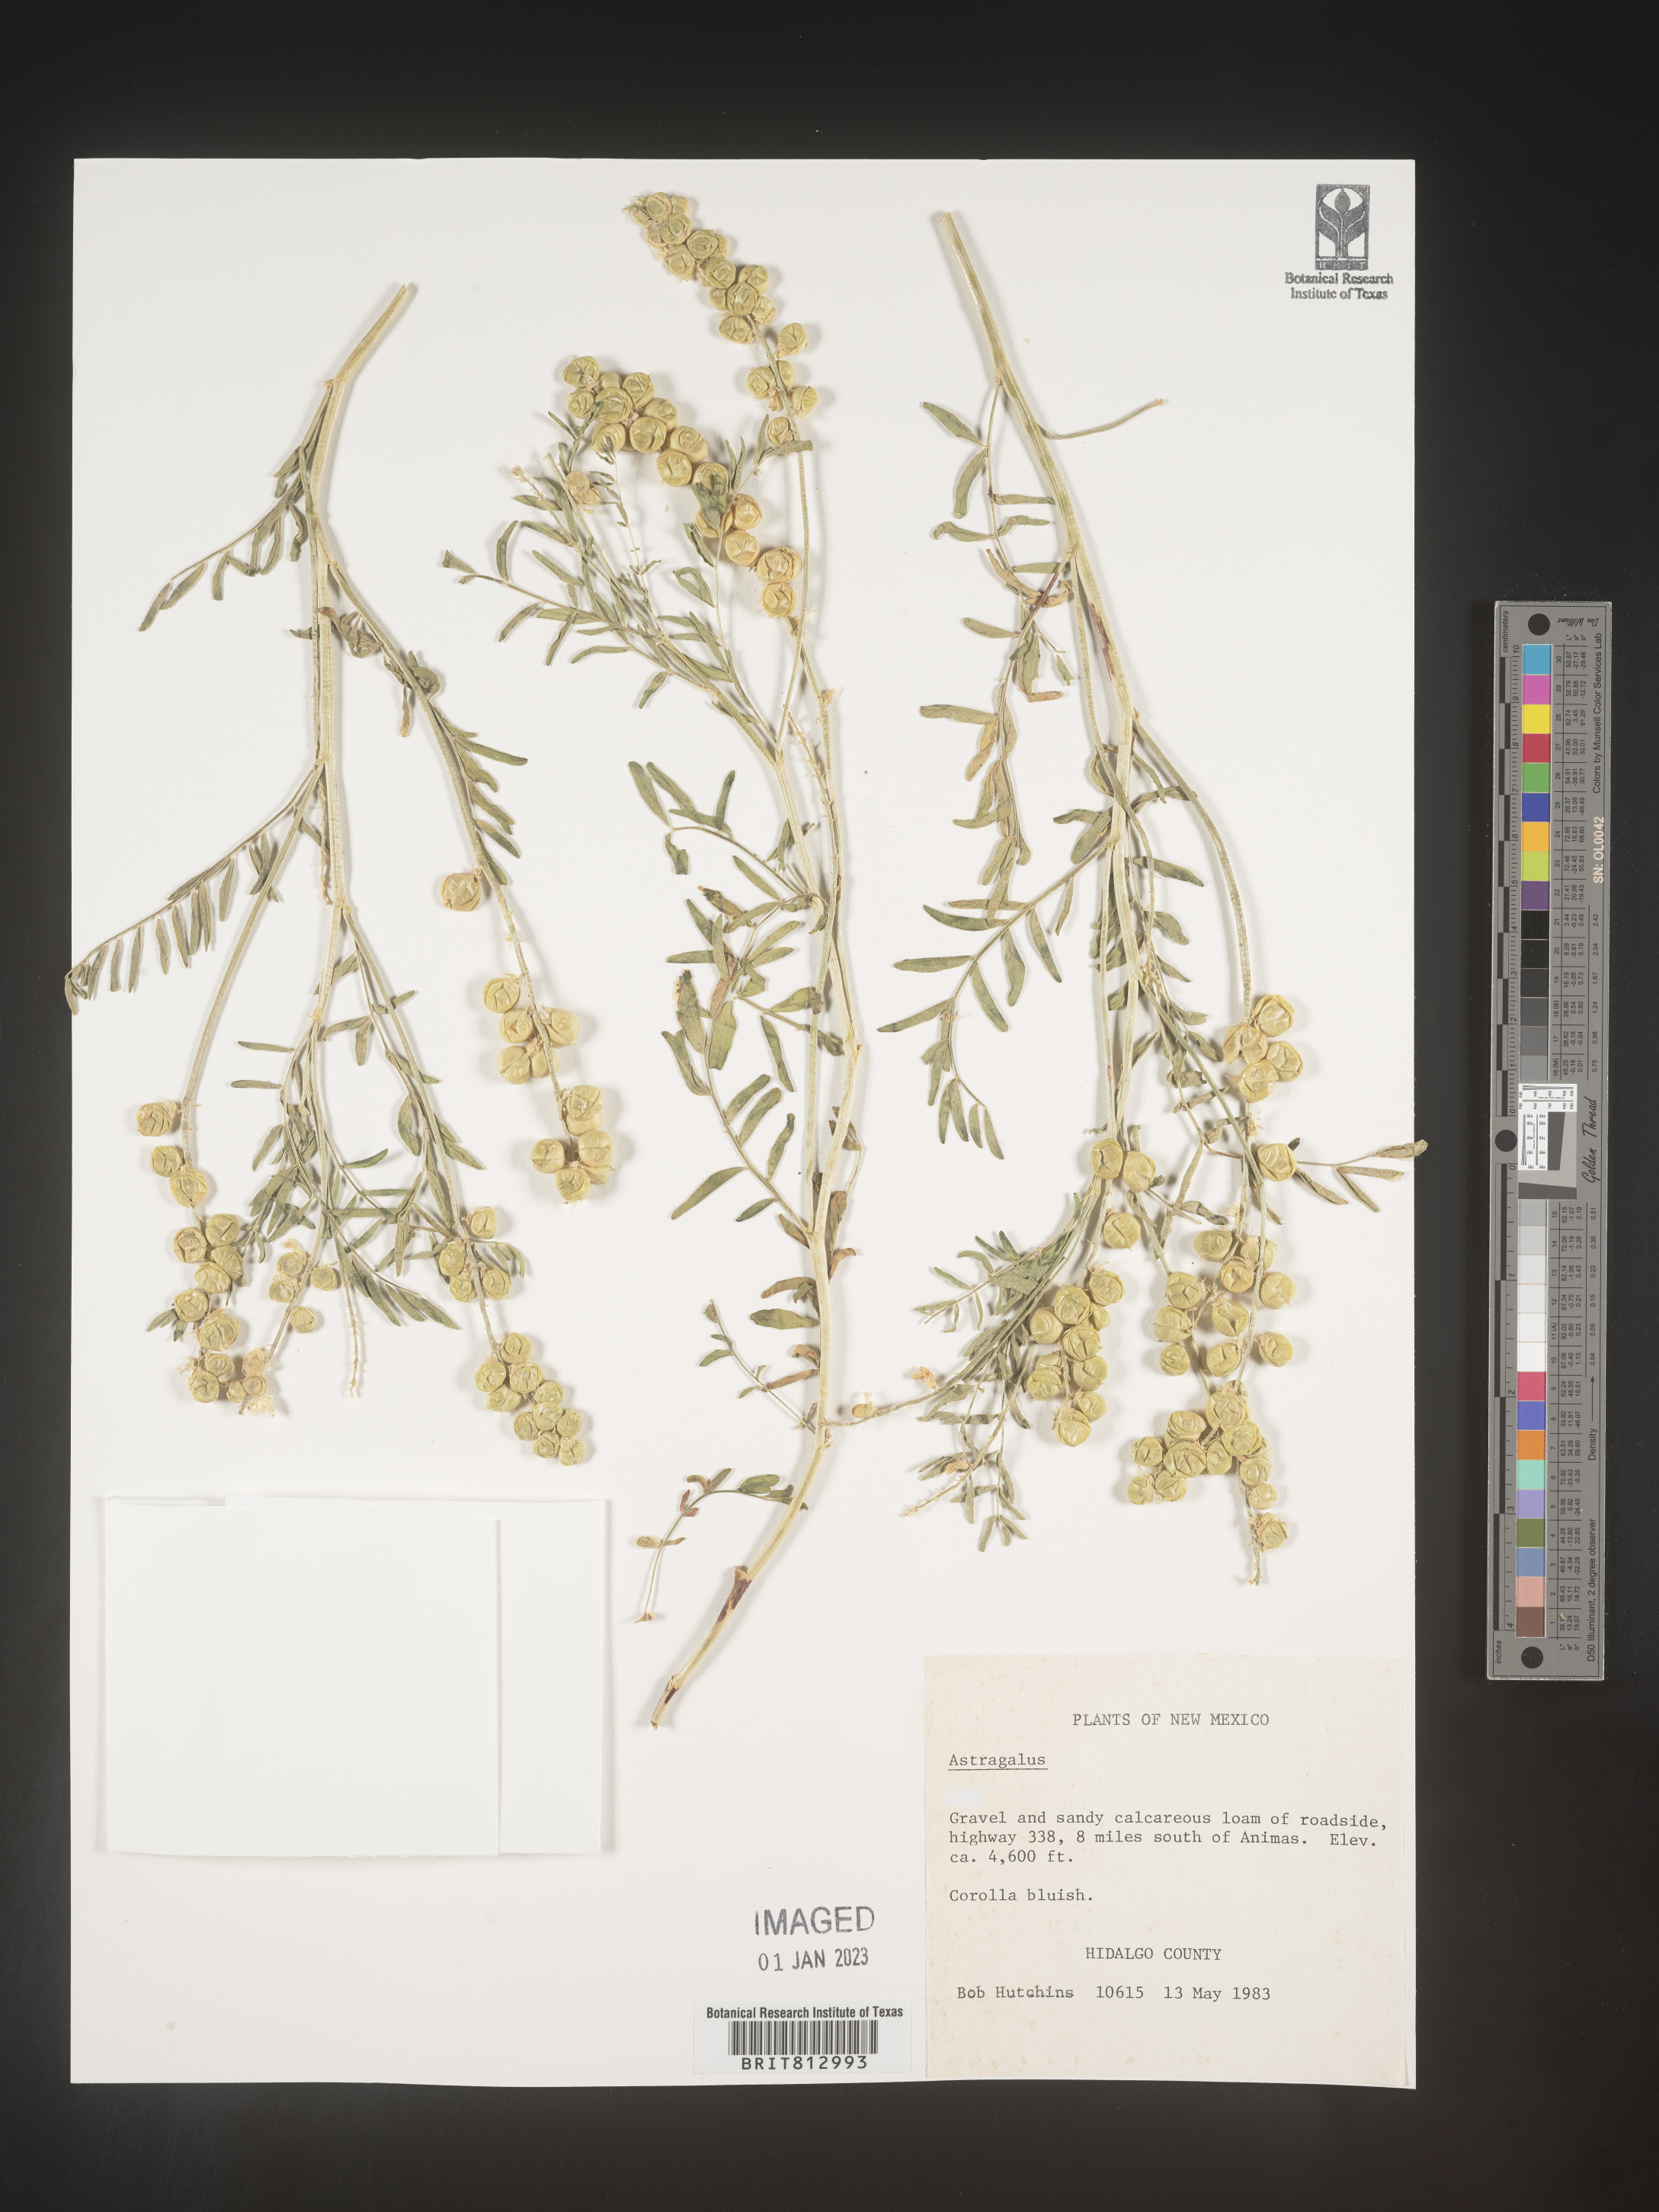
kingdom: Plantae
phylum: Tracheophyta
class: Magnoliopsida
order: Fabales
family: Fabaceae
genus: Astragalus
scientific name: Astragalus
